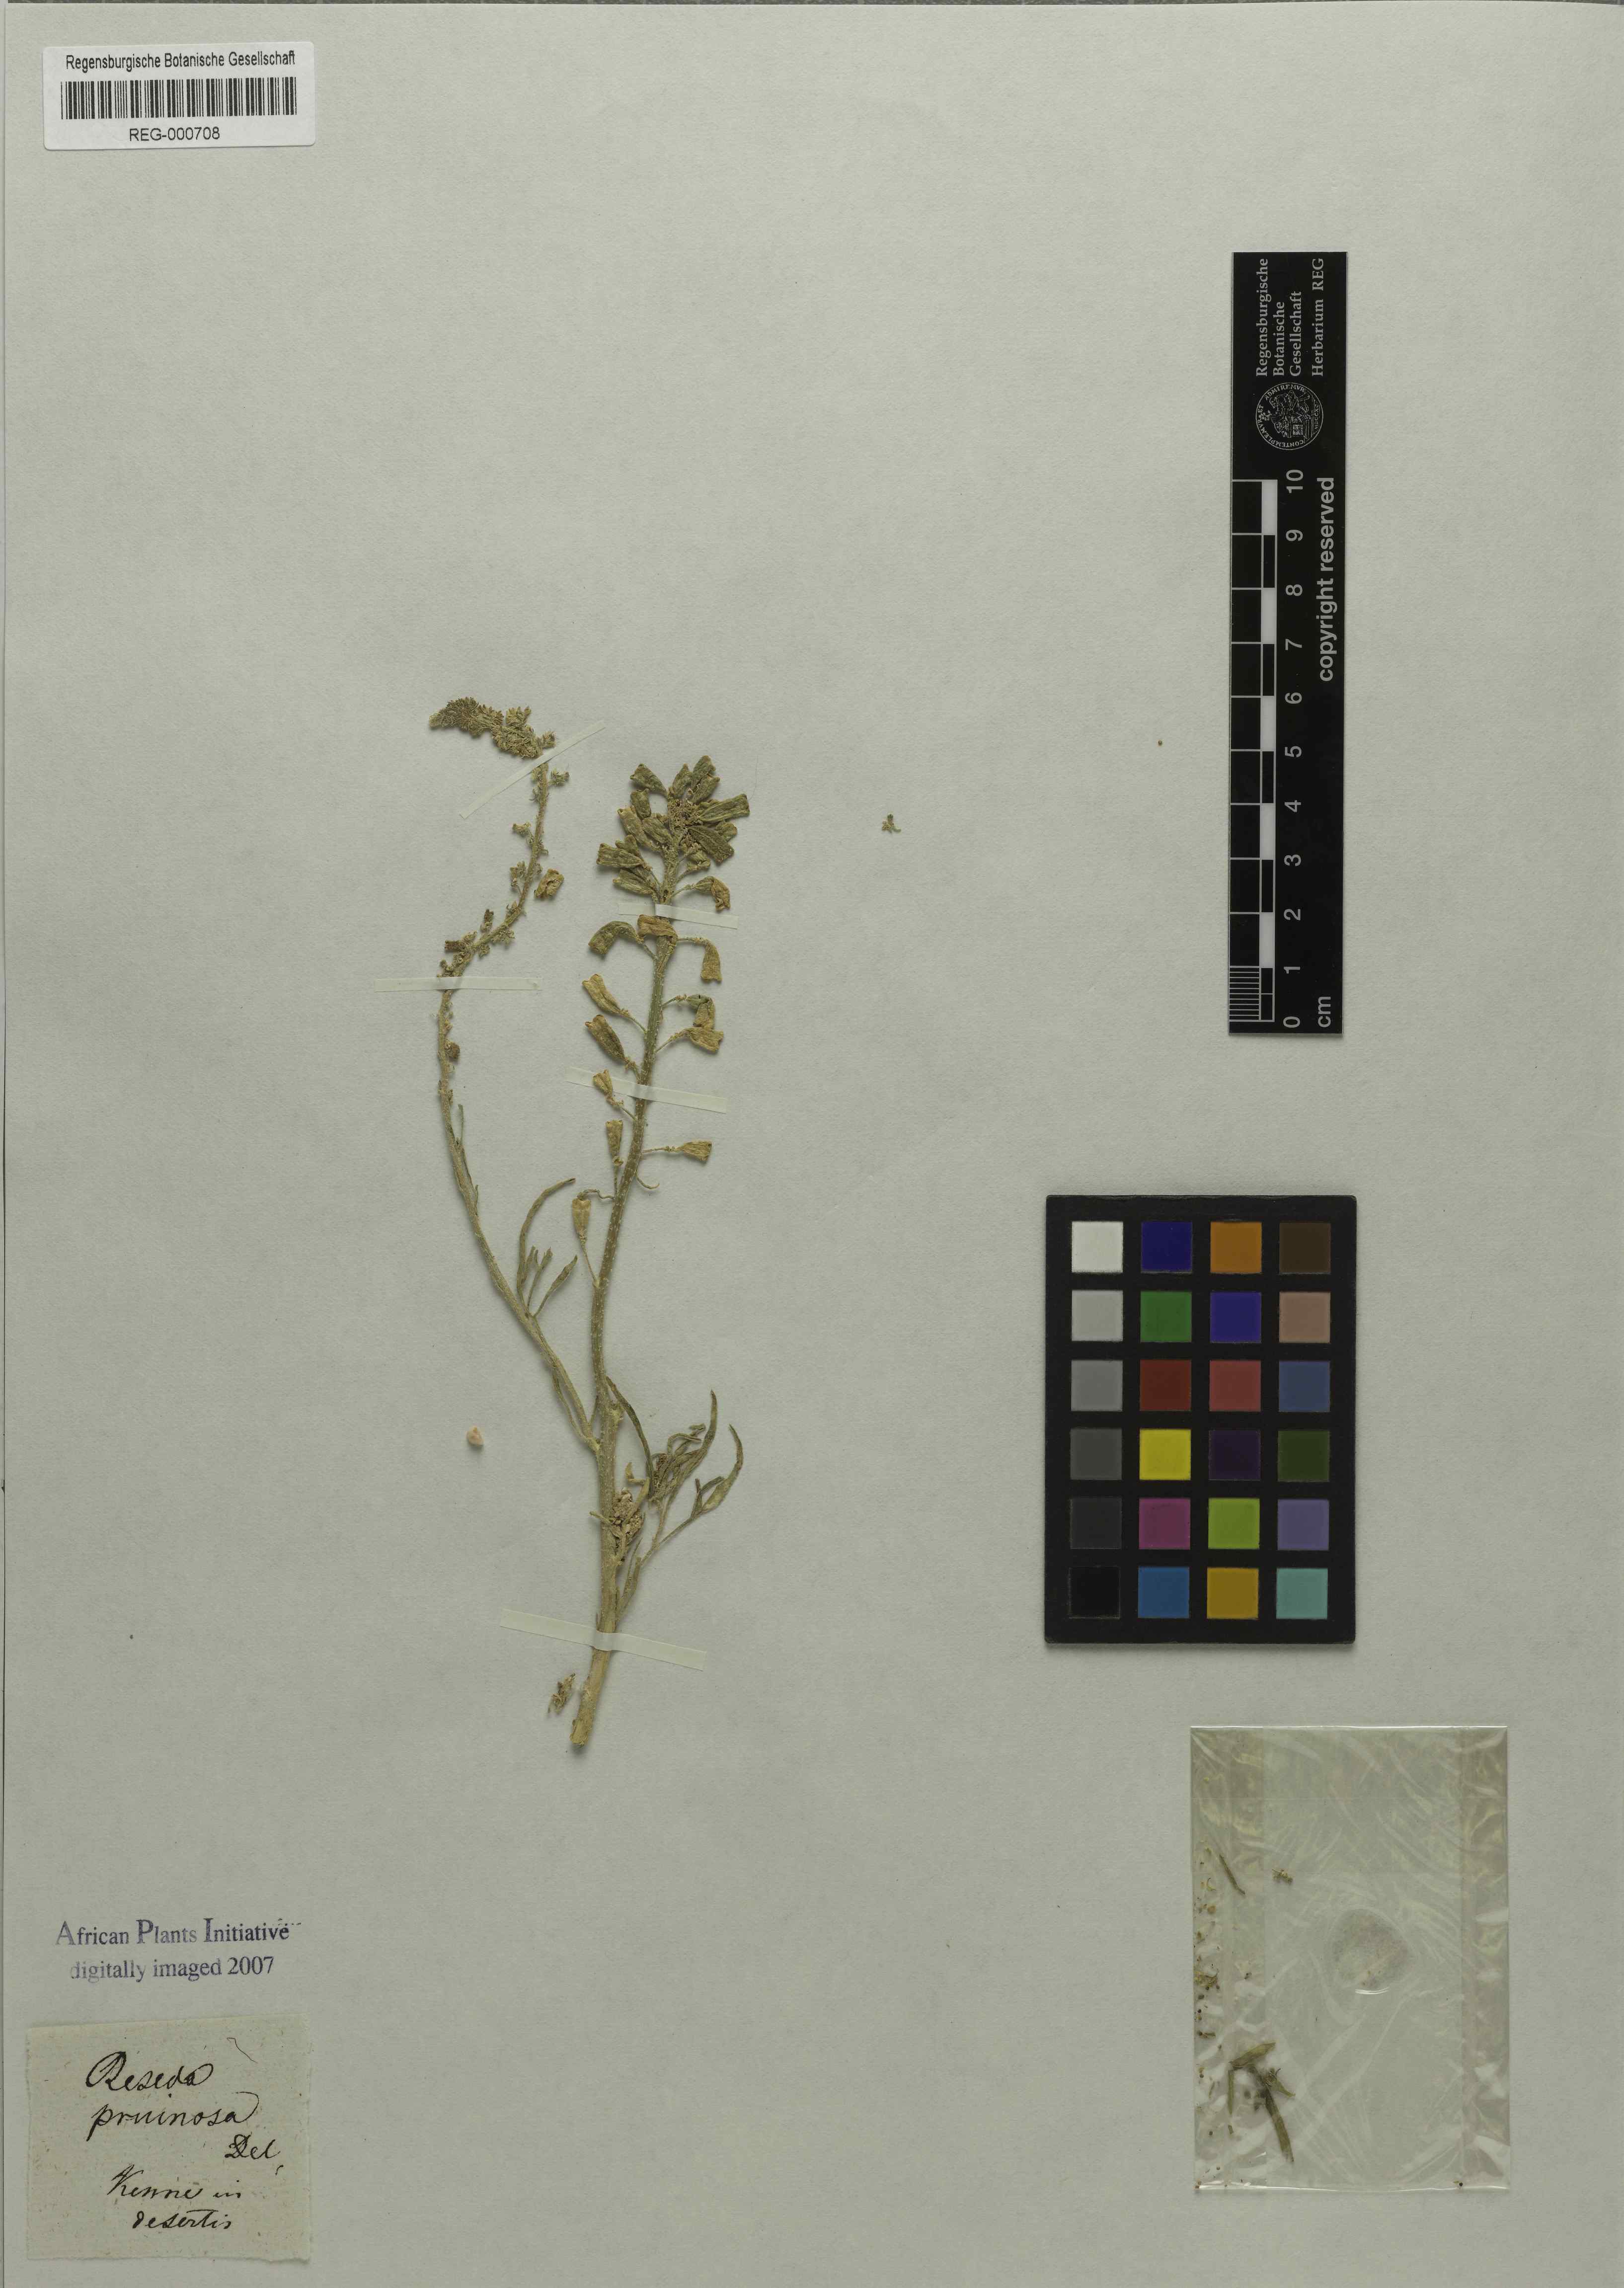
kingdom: Plantae
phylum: Tracheophyta
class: Magnoliopsida
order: Brassicales
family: Resedaceae
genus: Reseda
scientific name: Reseda pruinosa
